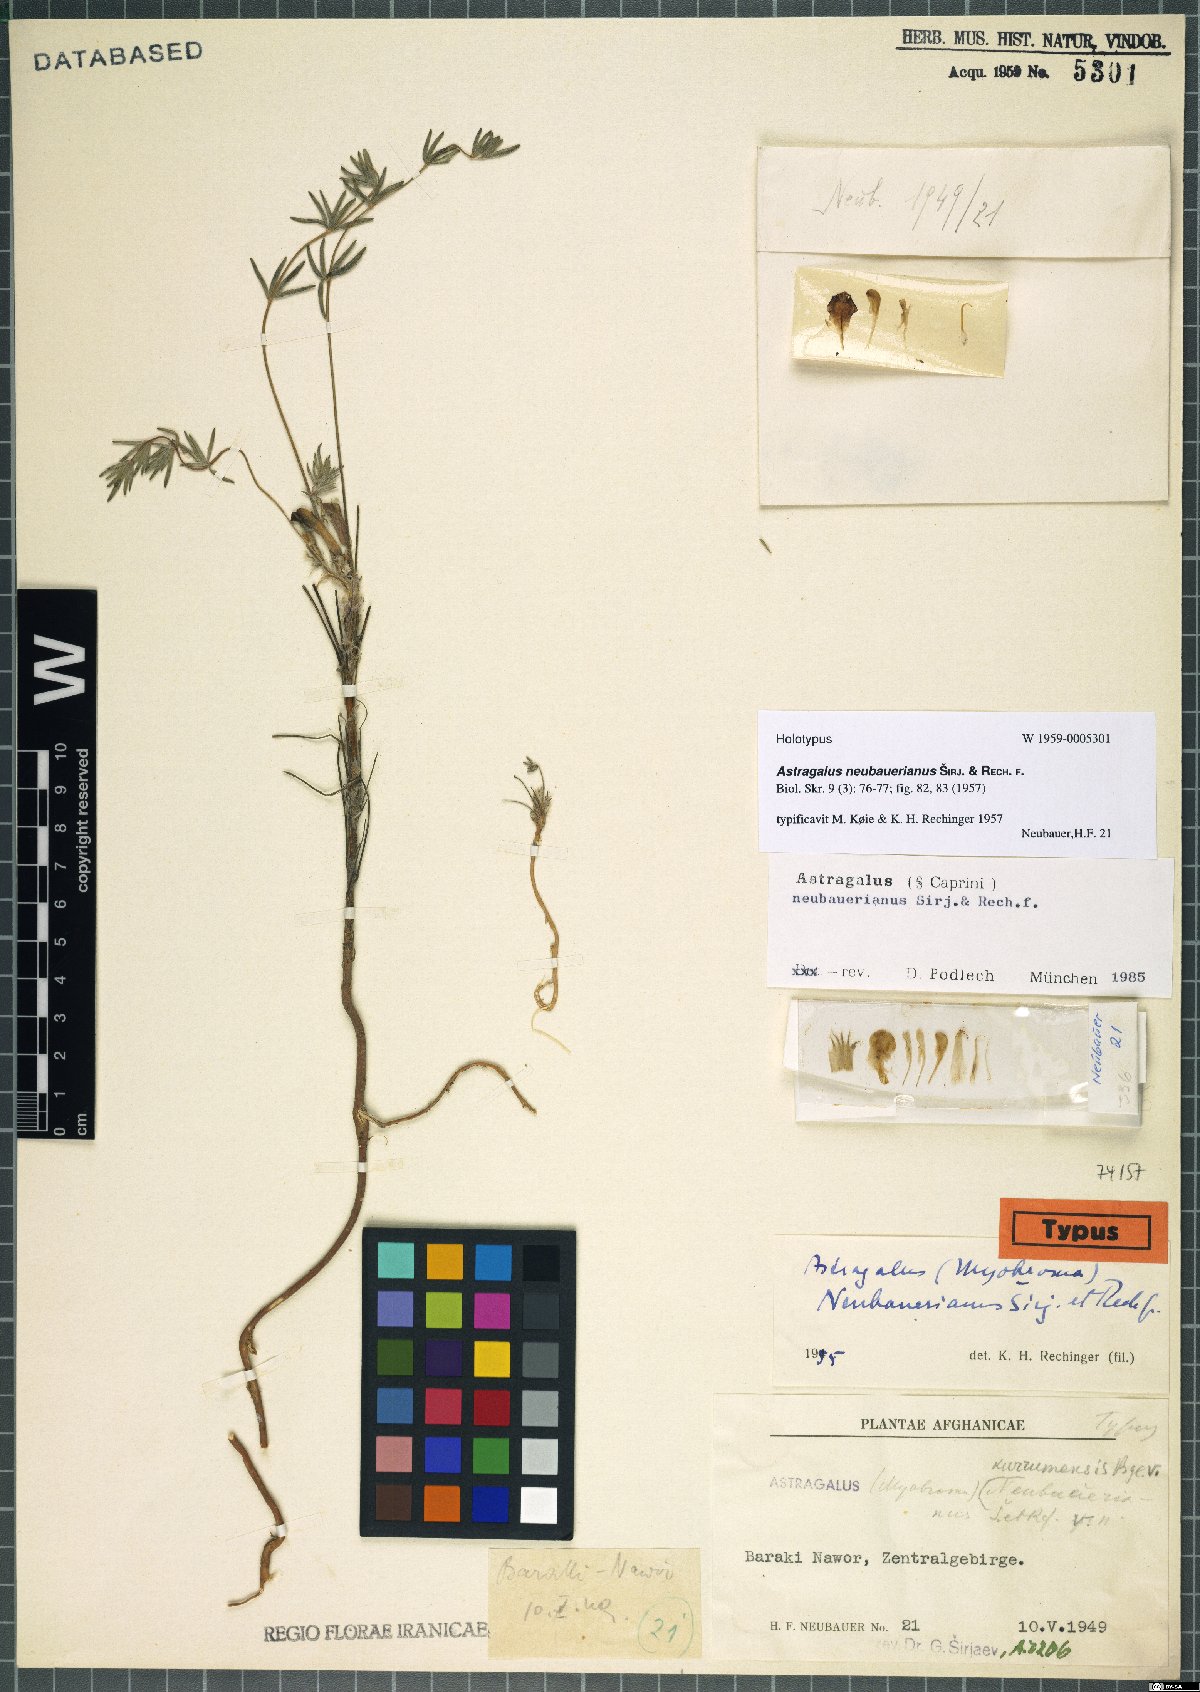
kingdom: Plantae
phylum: Tracheophyta
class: Magnoliopsida
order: Fabales
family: Fabaceae
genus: Astragalus
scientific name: Astragalus neubauerianus
